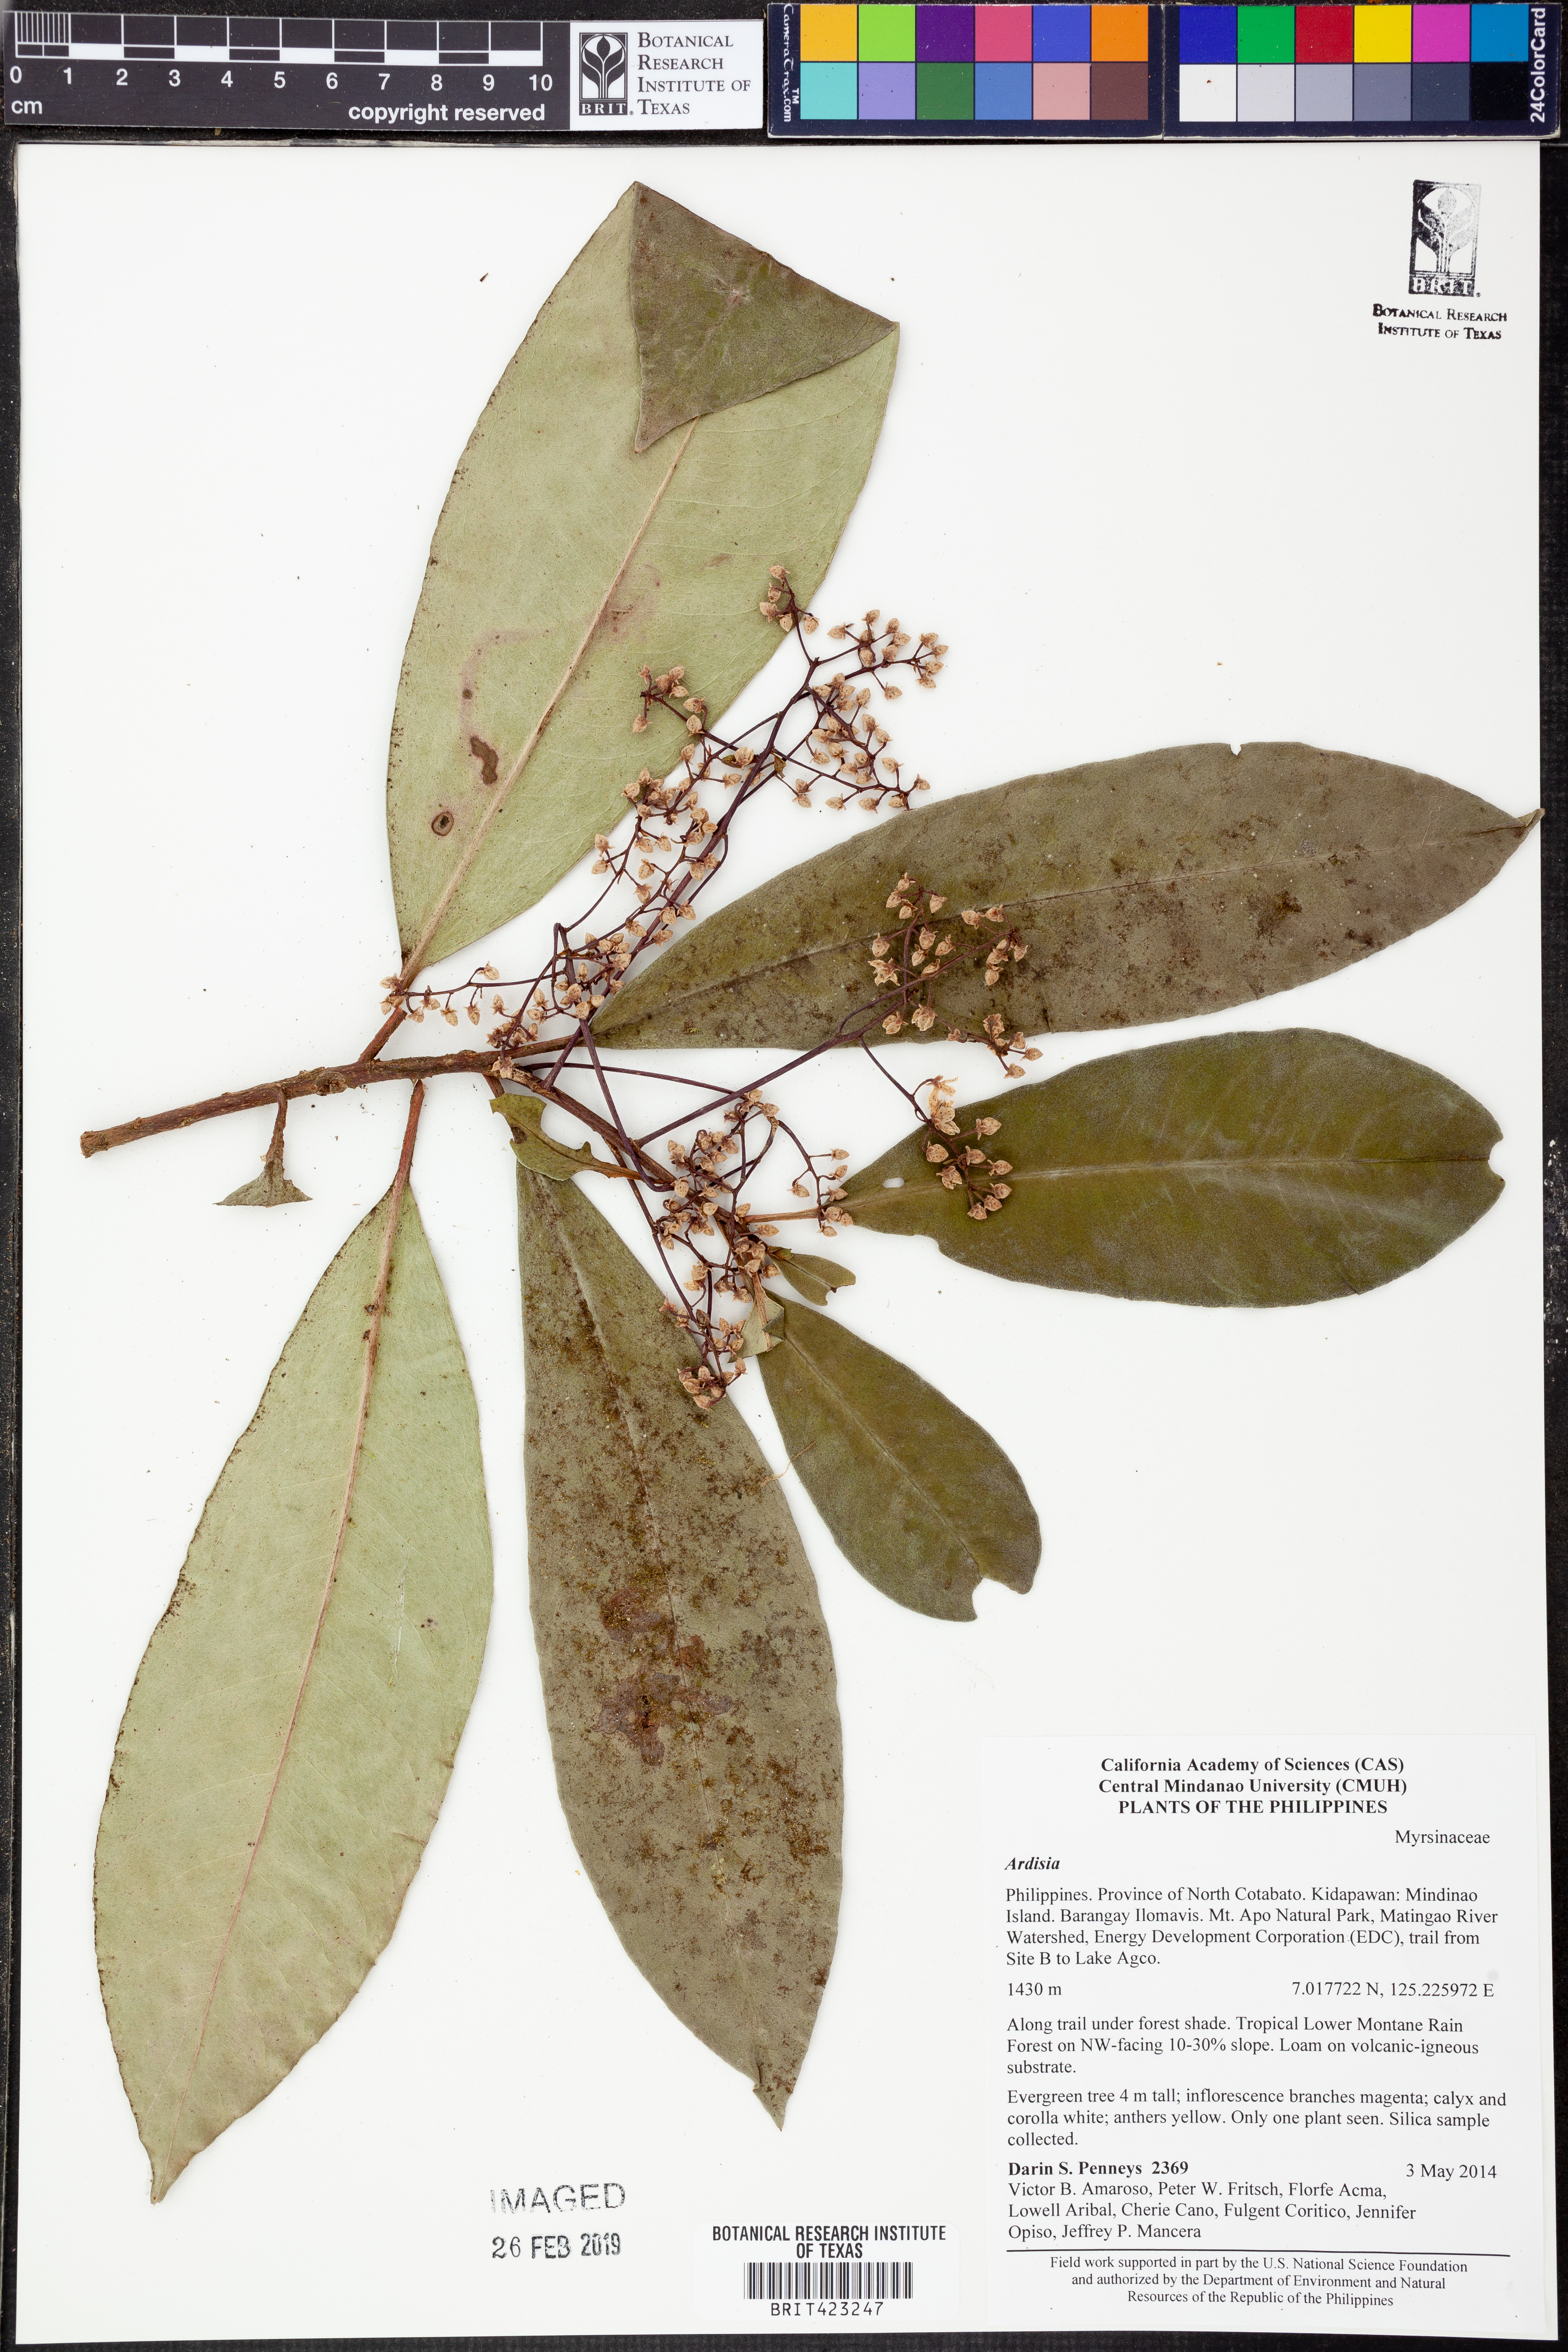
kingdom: Plantae
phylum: Tracheophyta
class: Magnoliopsida
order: Ericales
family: Primulaceae
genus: Ardisia
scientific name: Ardisia
